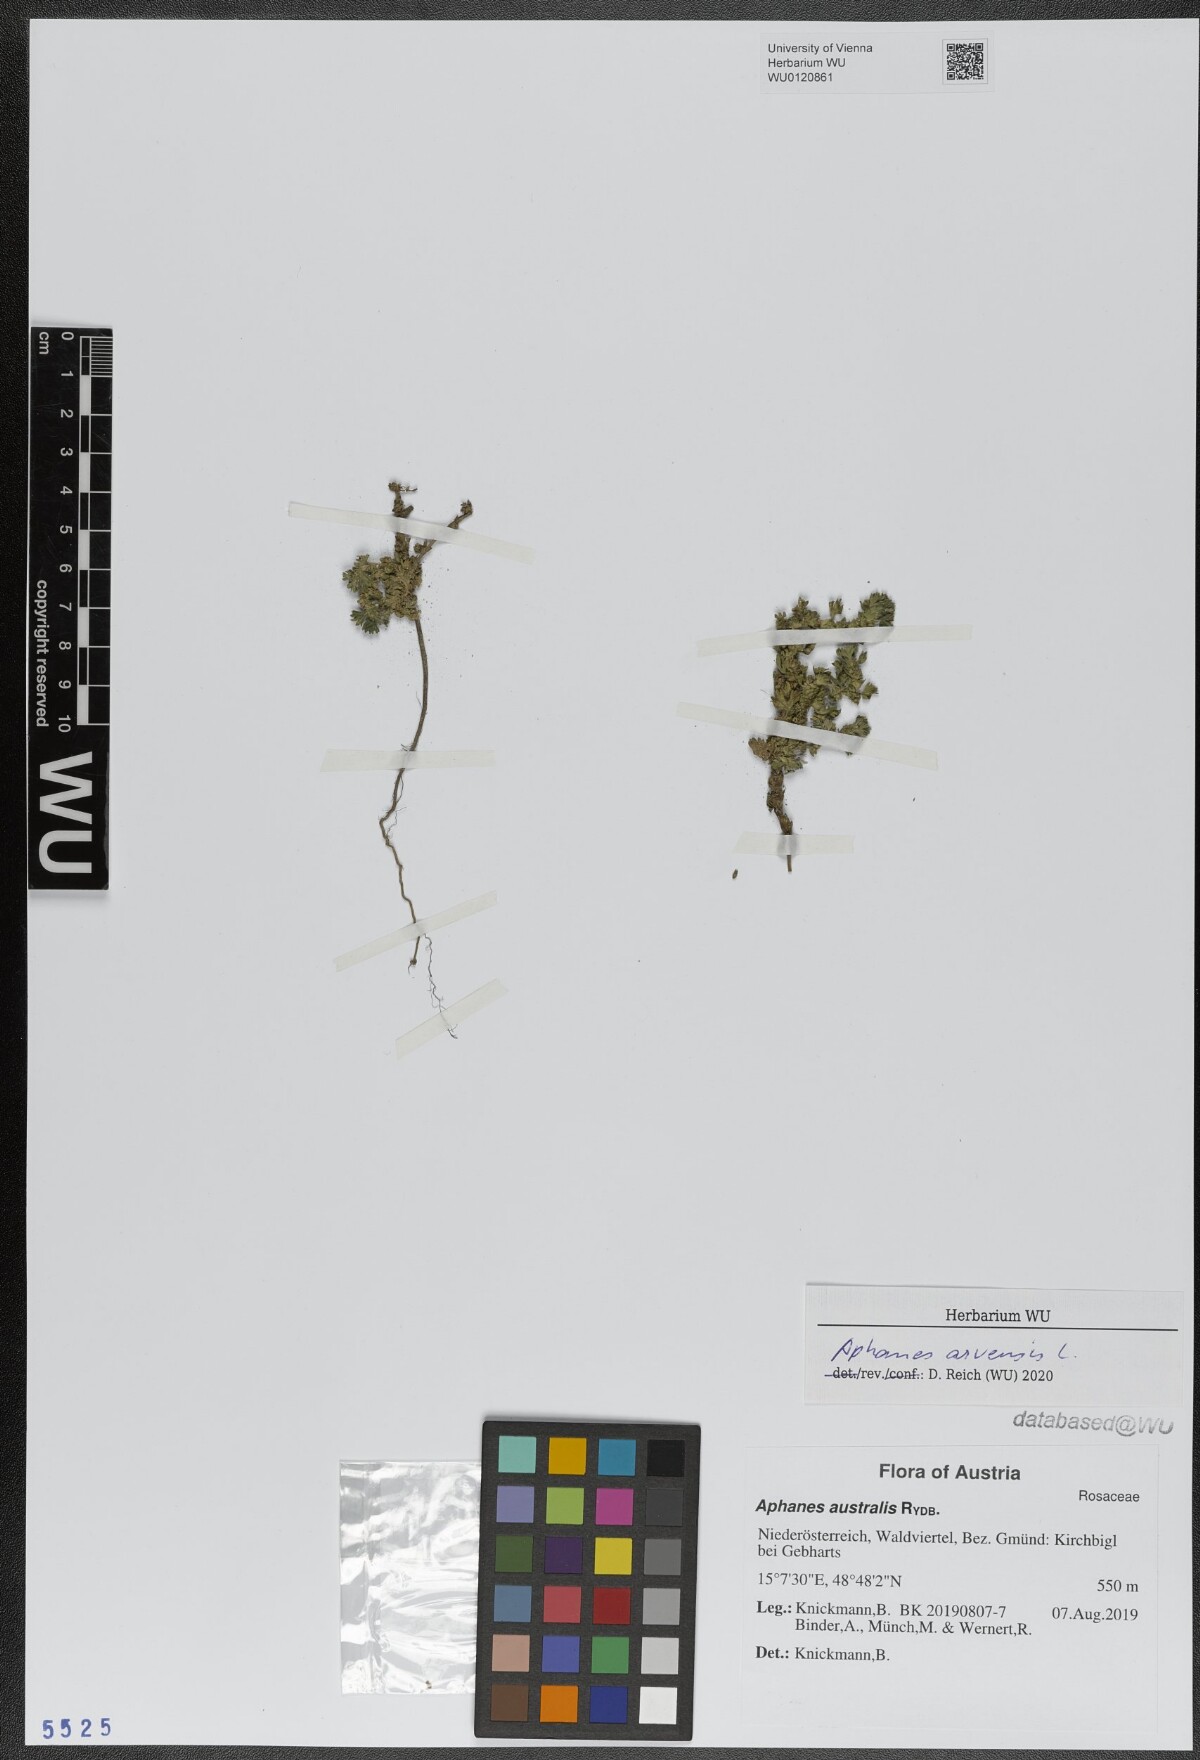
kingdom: Plantae
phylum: Tracheophyta
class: Magnoliopsida
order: Rosales
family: Rosaceae
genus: Aphanes
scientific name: Aphanes arvensis
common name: Parsley-piert
